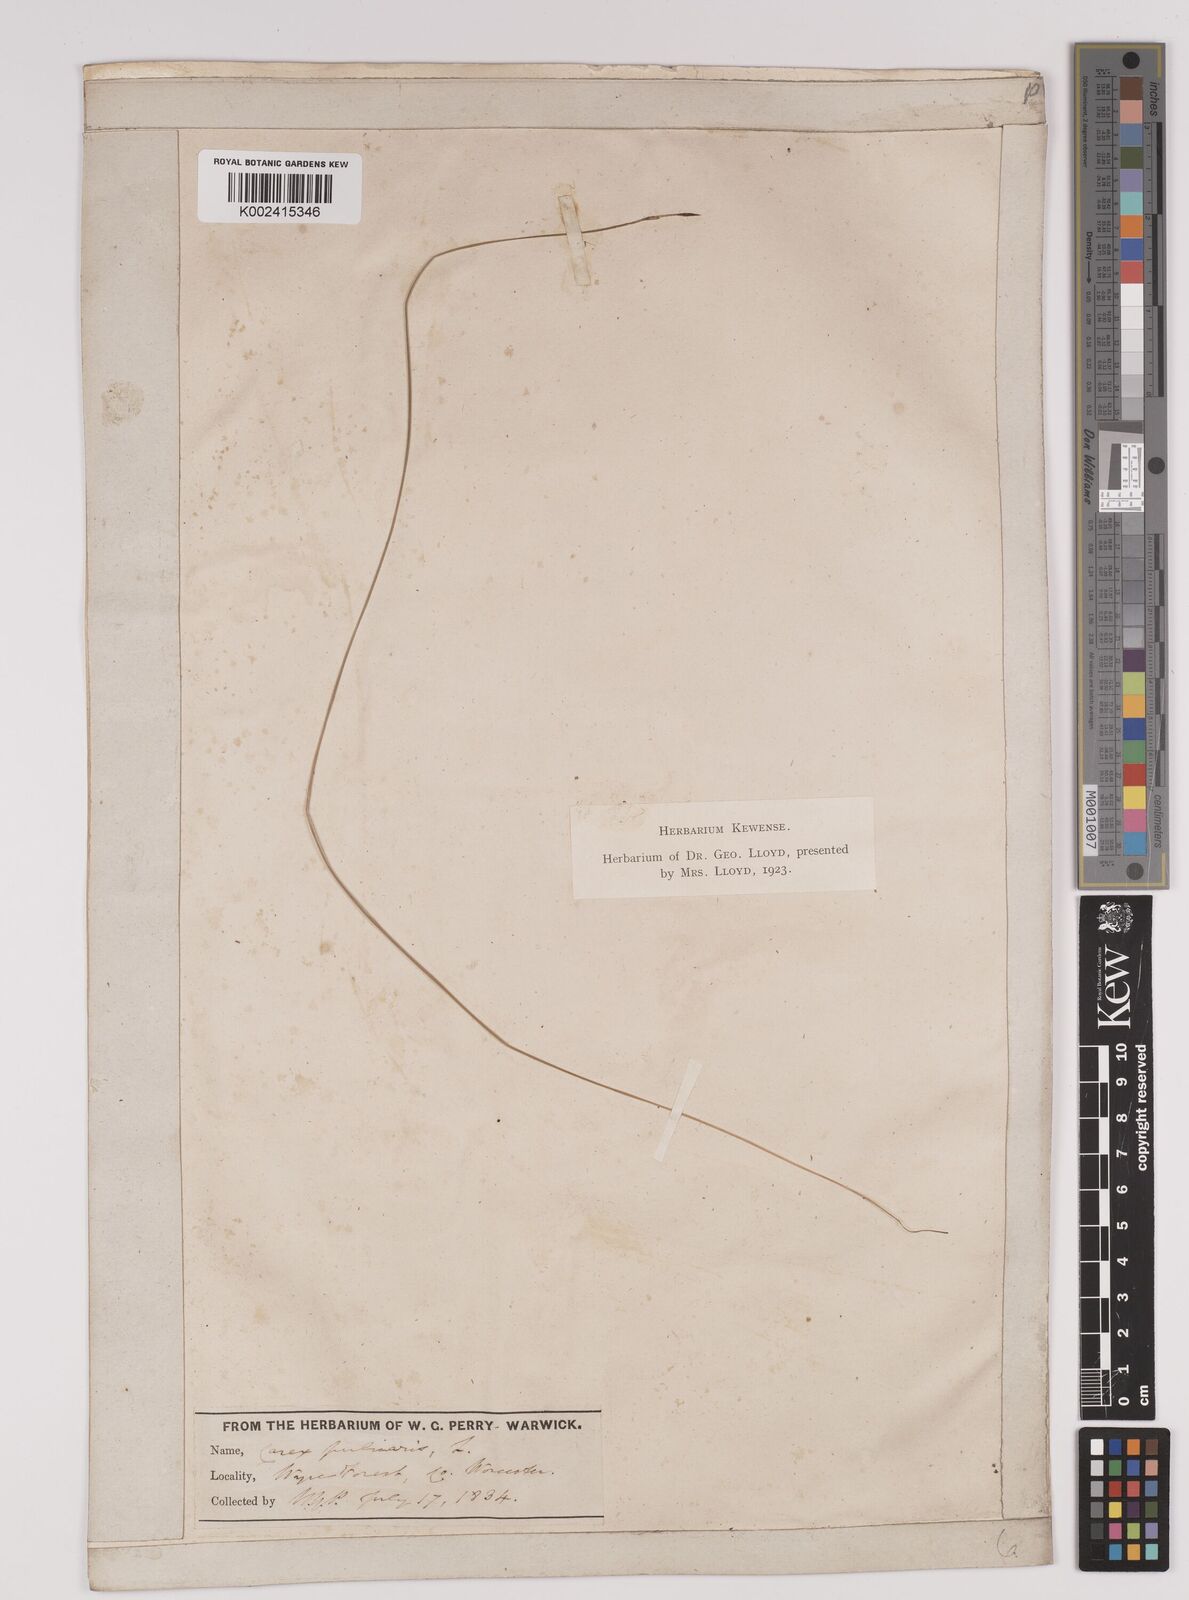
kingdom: Plantae
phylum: Tracheophyta
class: Liliopsida
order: Poales
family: Cyperaceae
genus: Carex
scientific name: Carex pulicaris
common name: Flea sedge
